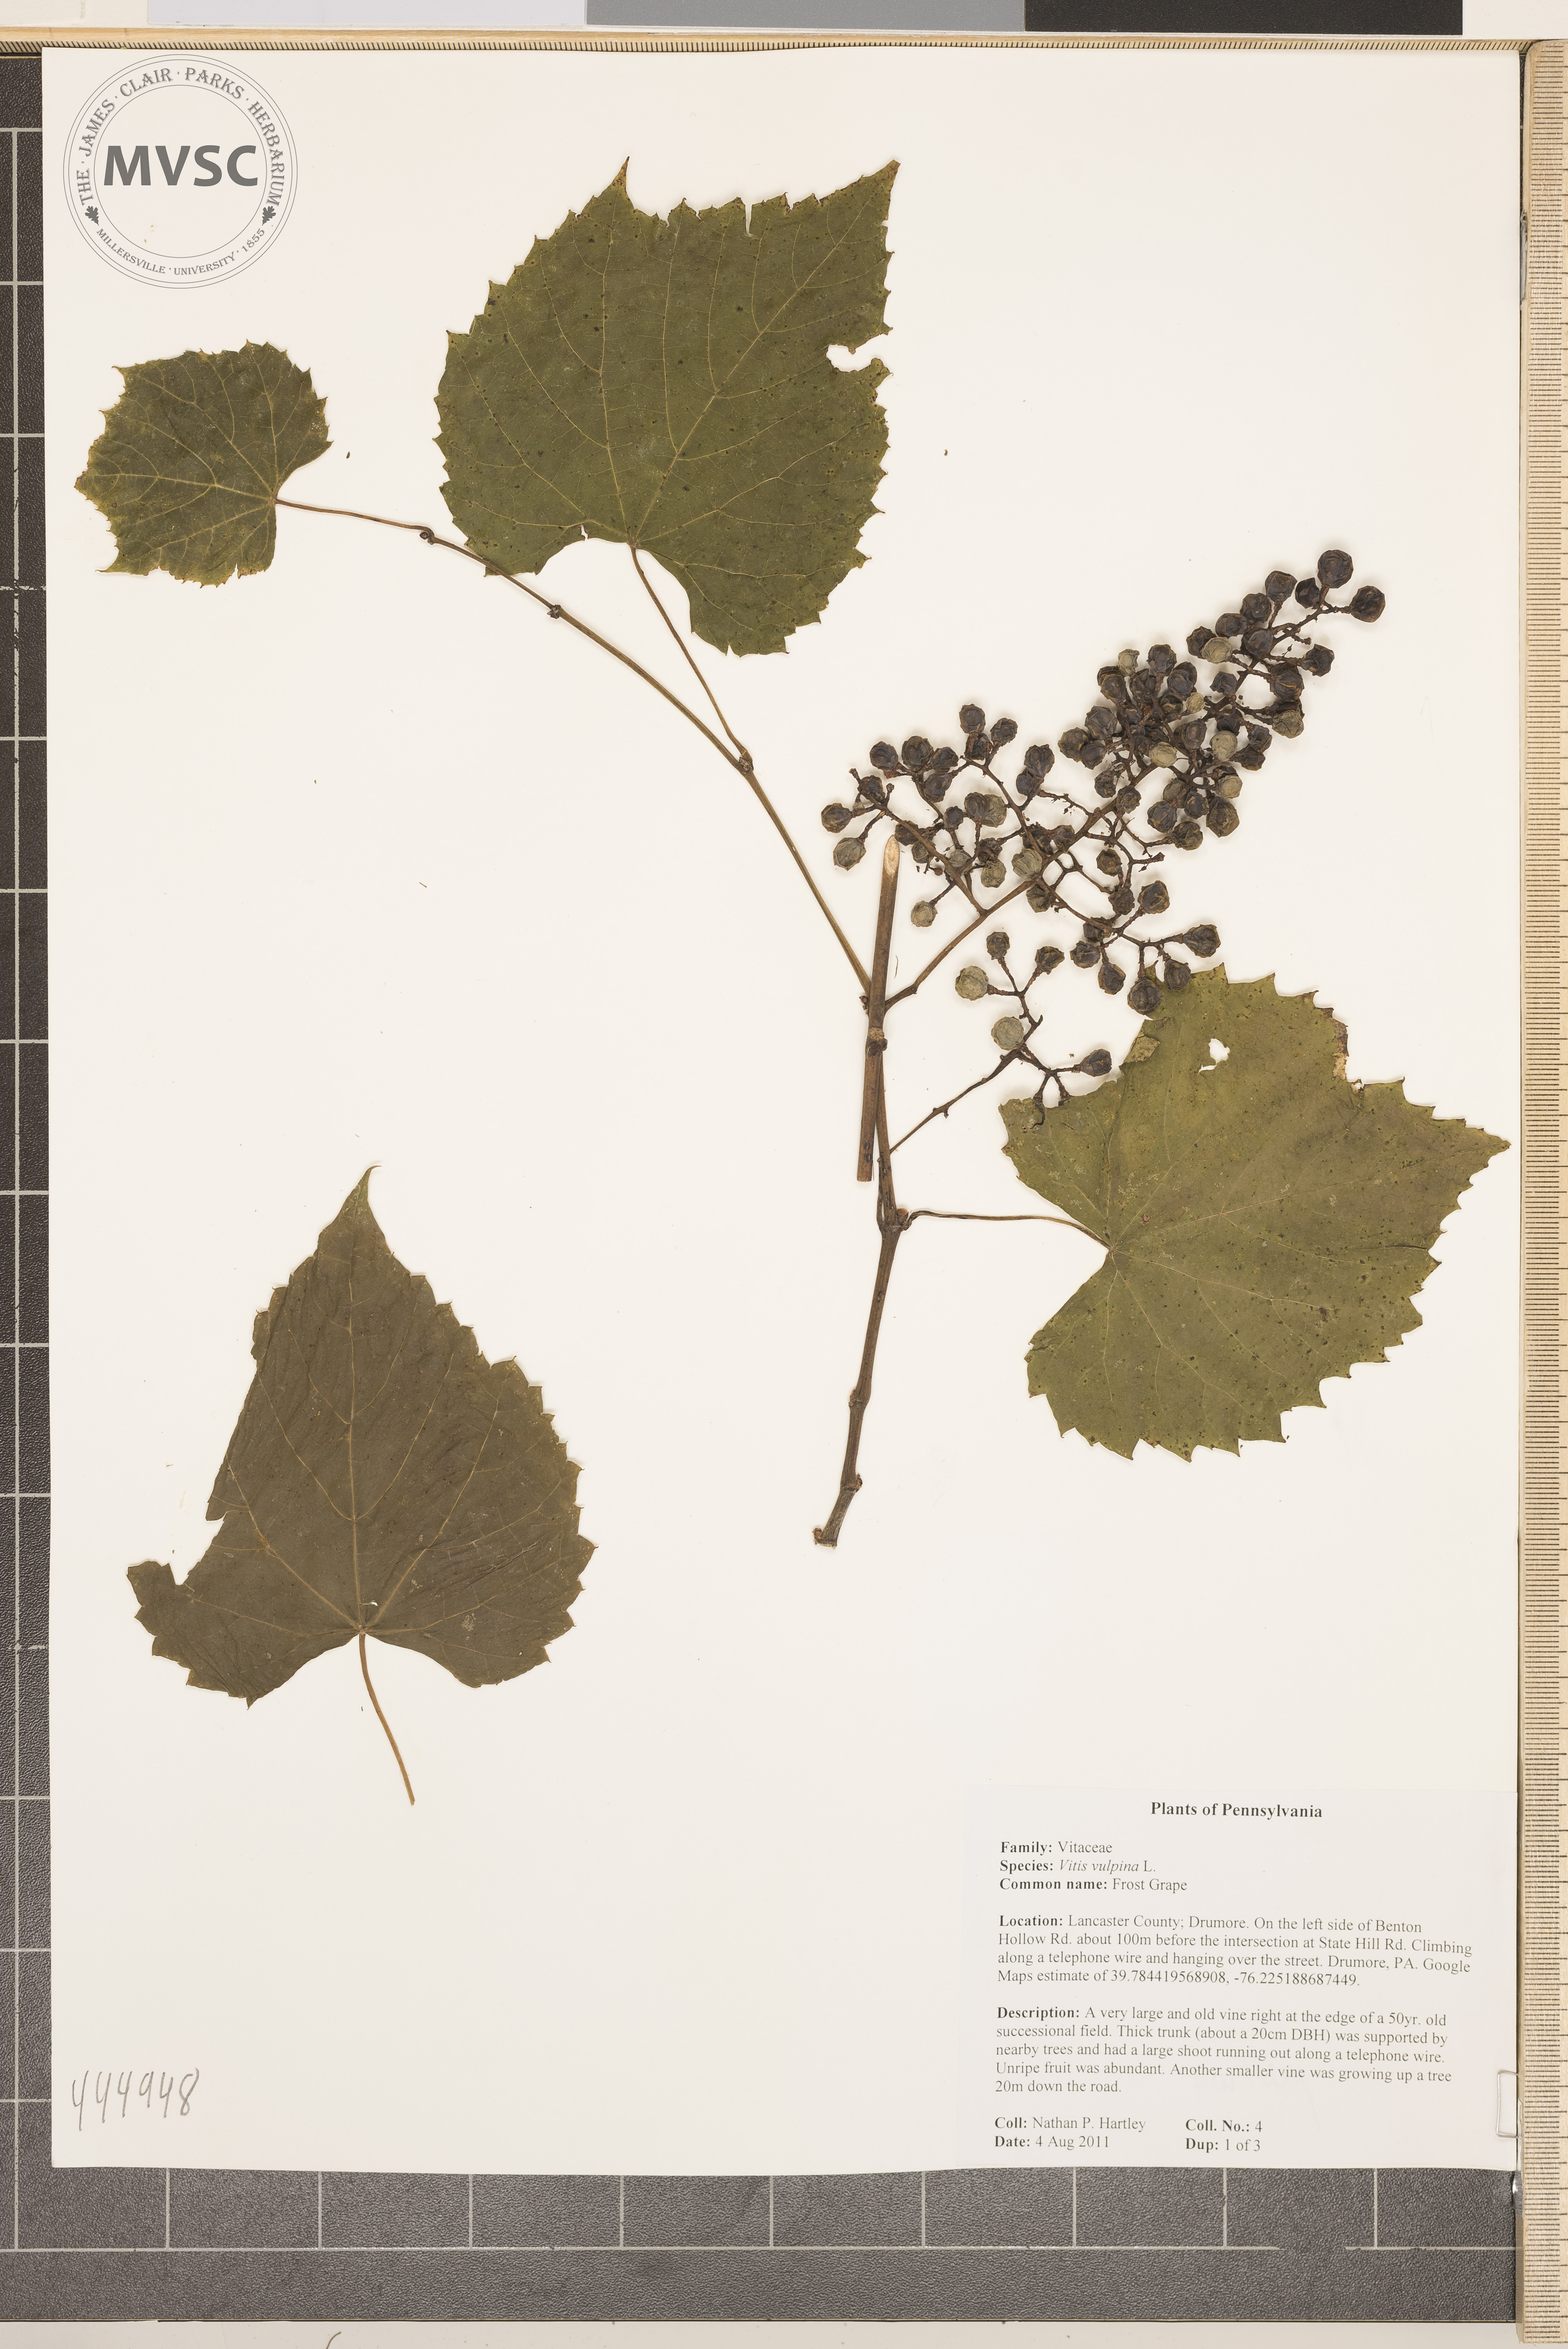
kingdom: Plantae
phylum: Tracheophyta
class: Magnoliopsida
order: Vitales
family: Vitaceae
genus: Vitis
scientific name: Vitis vulpina
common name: Frost grape
